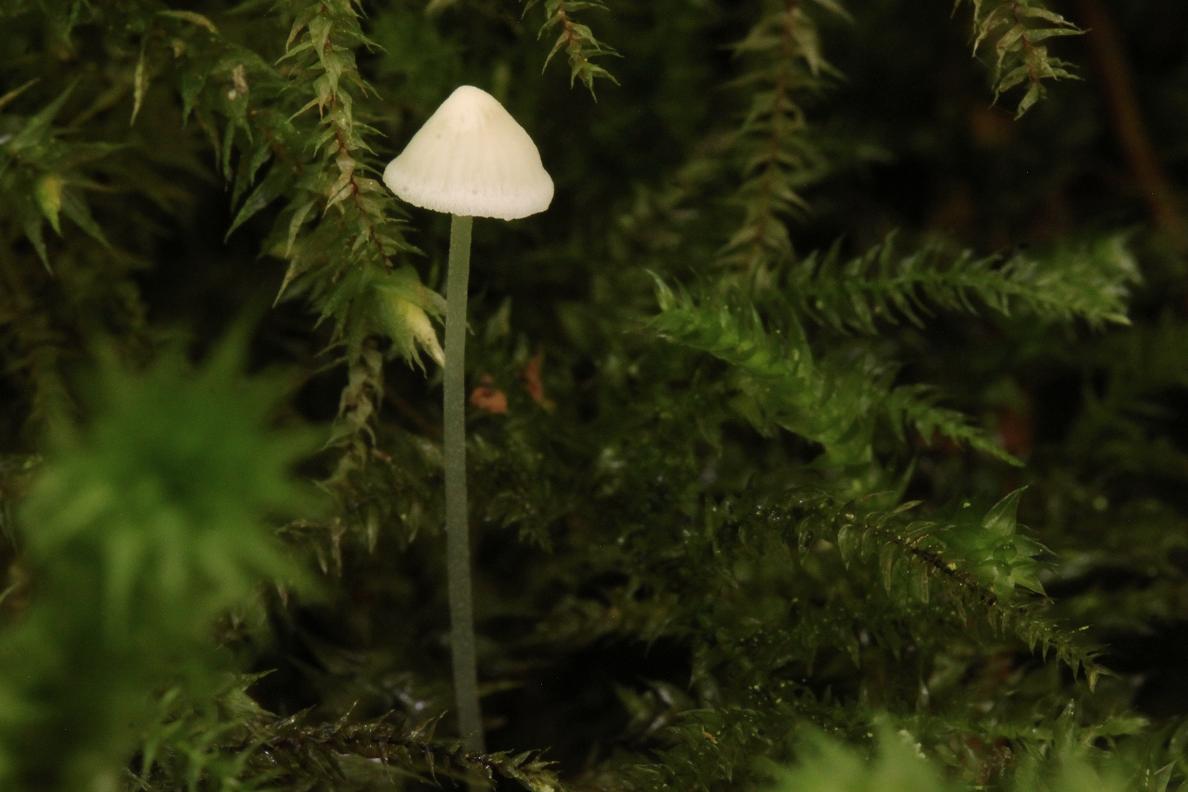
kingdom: Fungi
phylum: Basidiomycota
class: Agaricomycetes
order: Agaricales
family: Porotheleaceae
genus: Phloeomana
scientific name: Phloeomana speirea
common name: kvist-huesvamp
